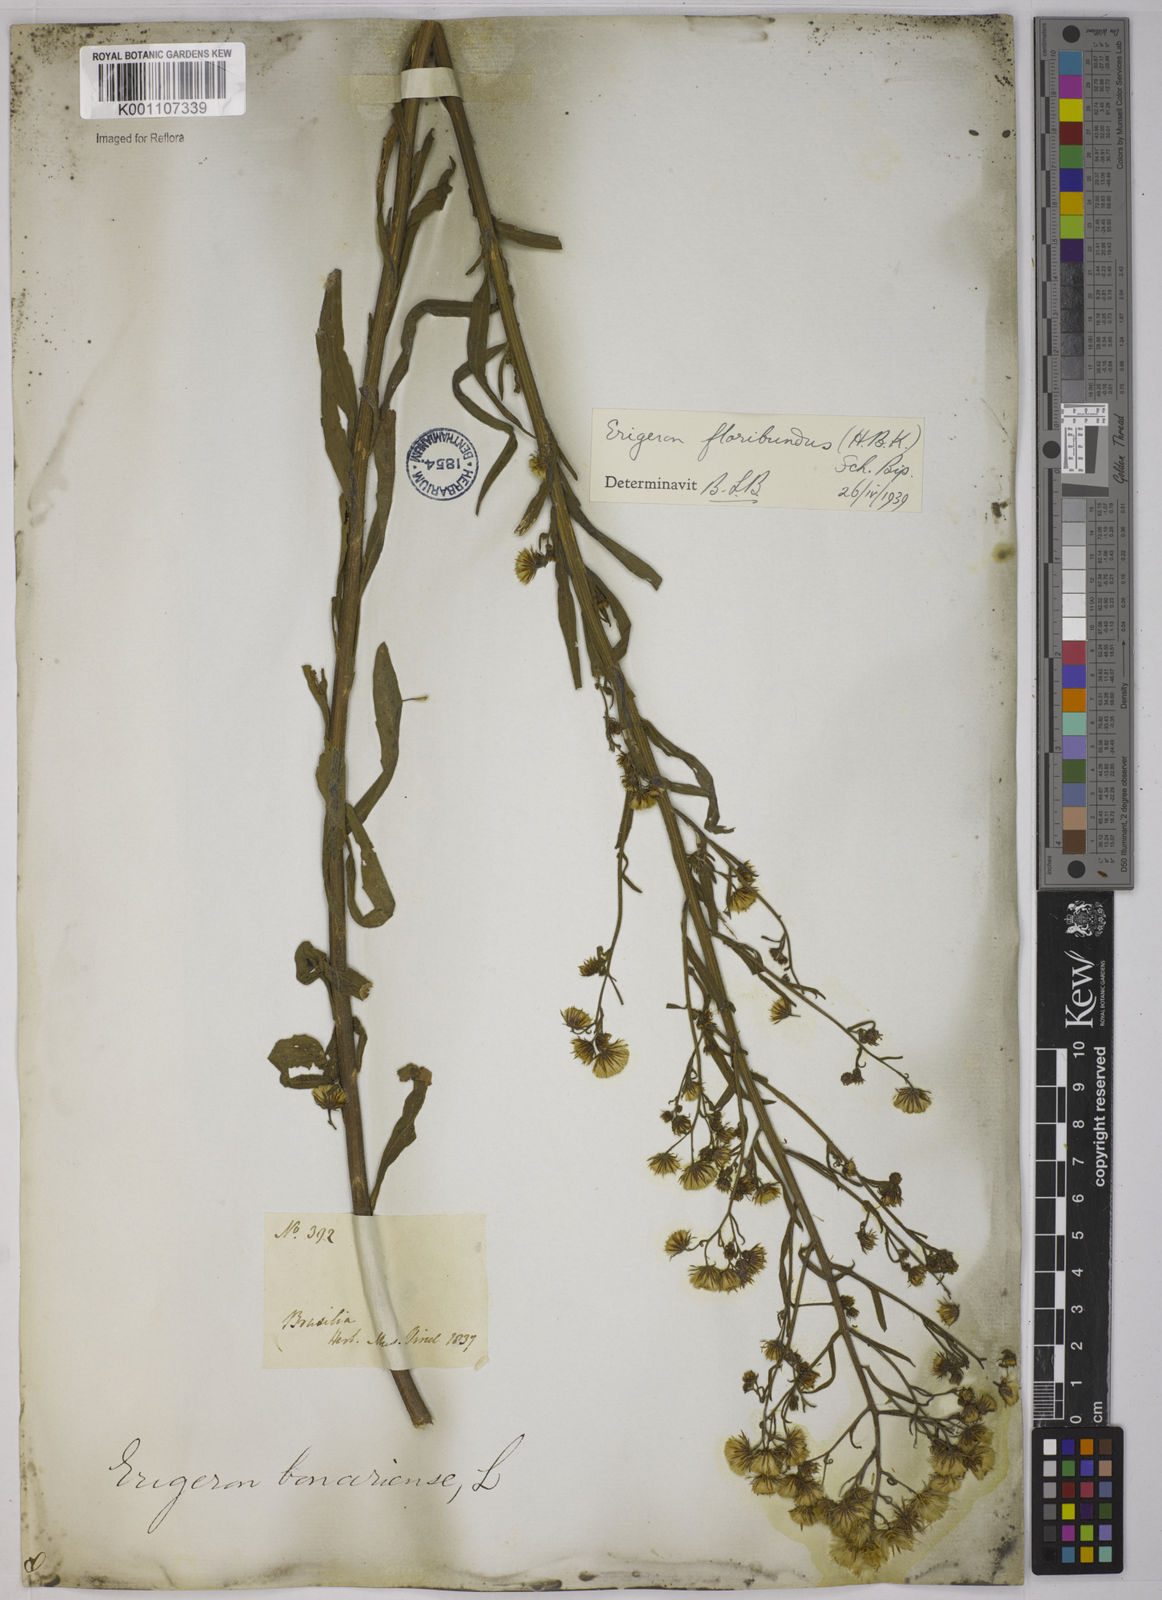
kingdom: Plantae
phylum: Tracheophyta
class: Magnoliopsida
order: Asterales
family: Asteraceae
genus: Erigeron
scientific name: Erigeron floribundus
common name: Bilbao fleabane
